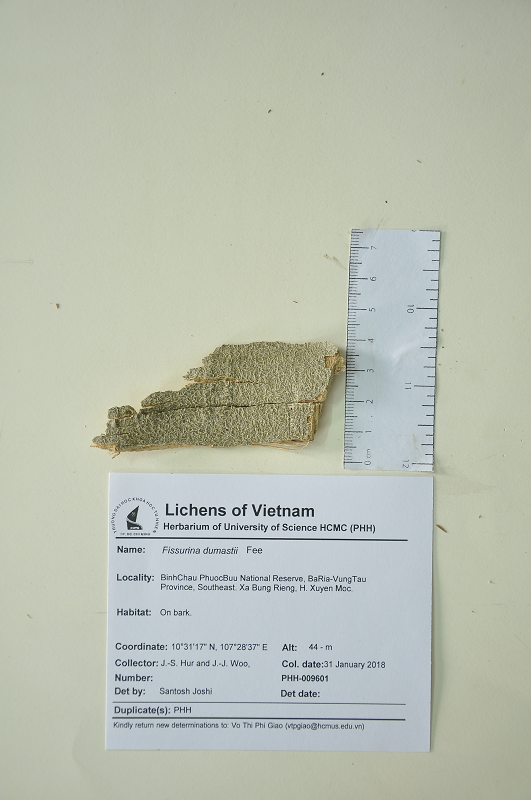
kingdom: Fungi
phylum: Ascomycota
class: Lecanoromycetes
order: Ostropales
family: Graphidaceae
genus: Fissurina
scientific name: Fissurina dumastii
